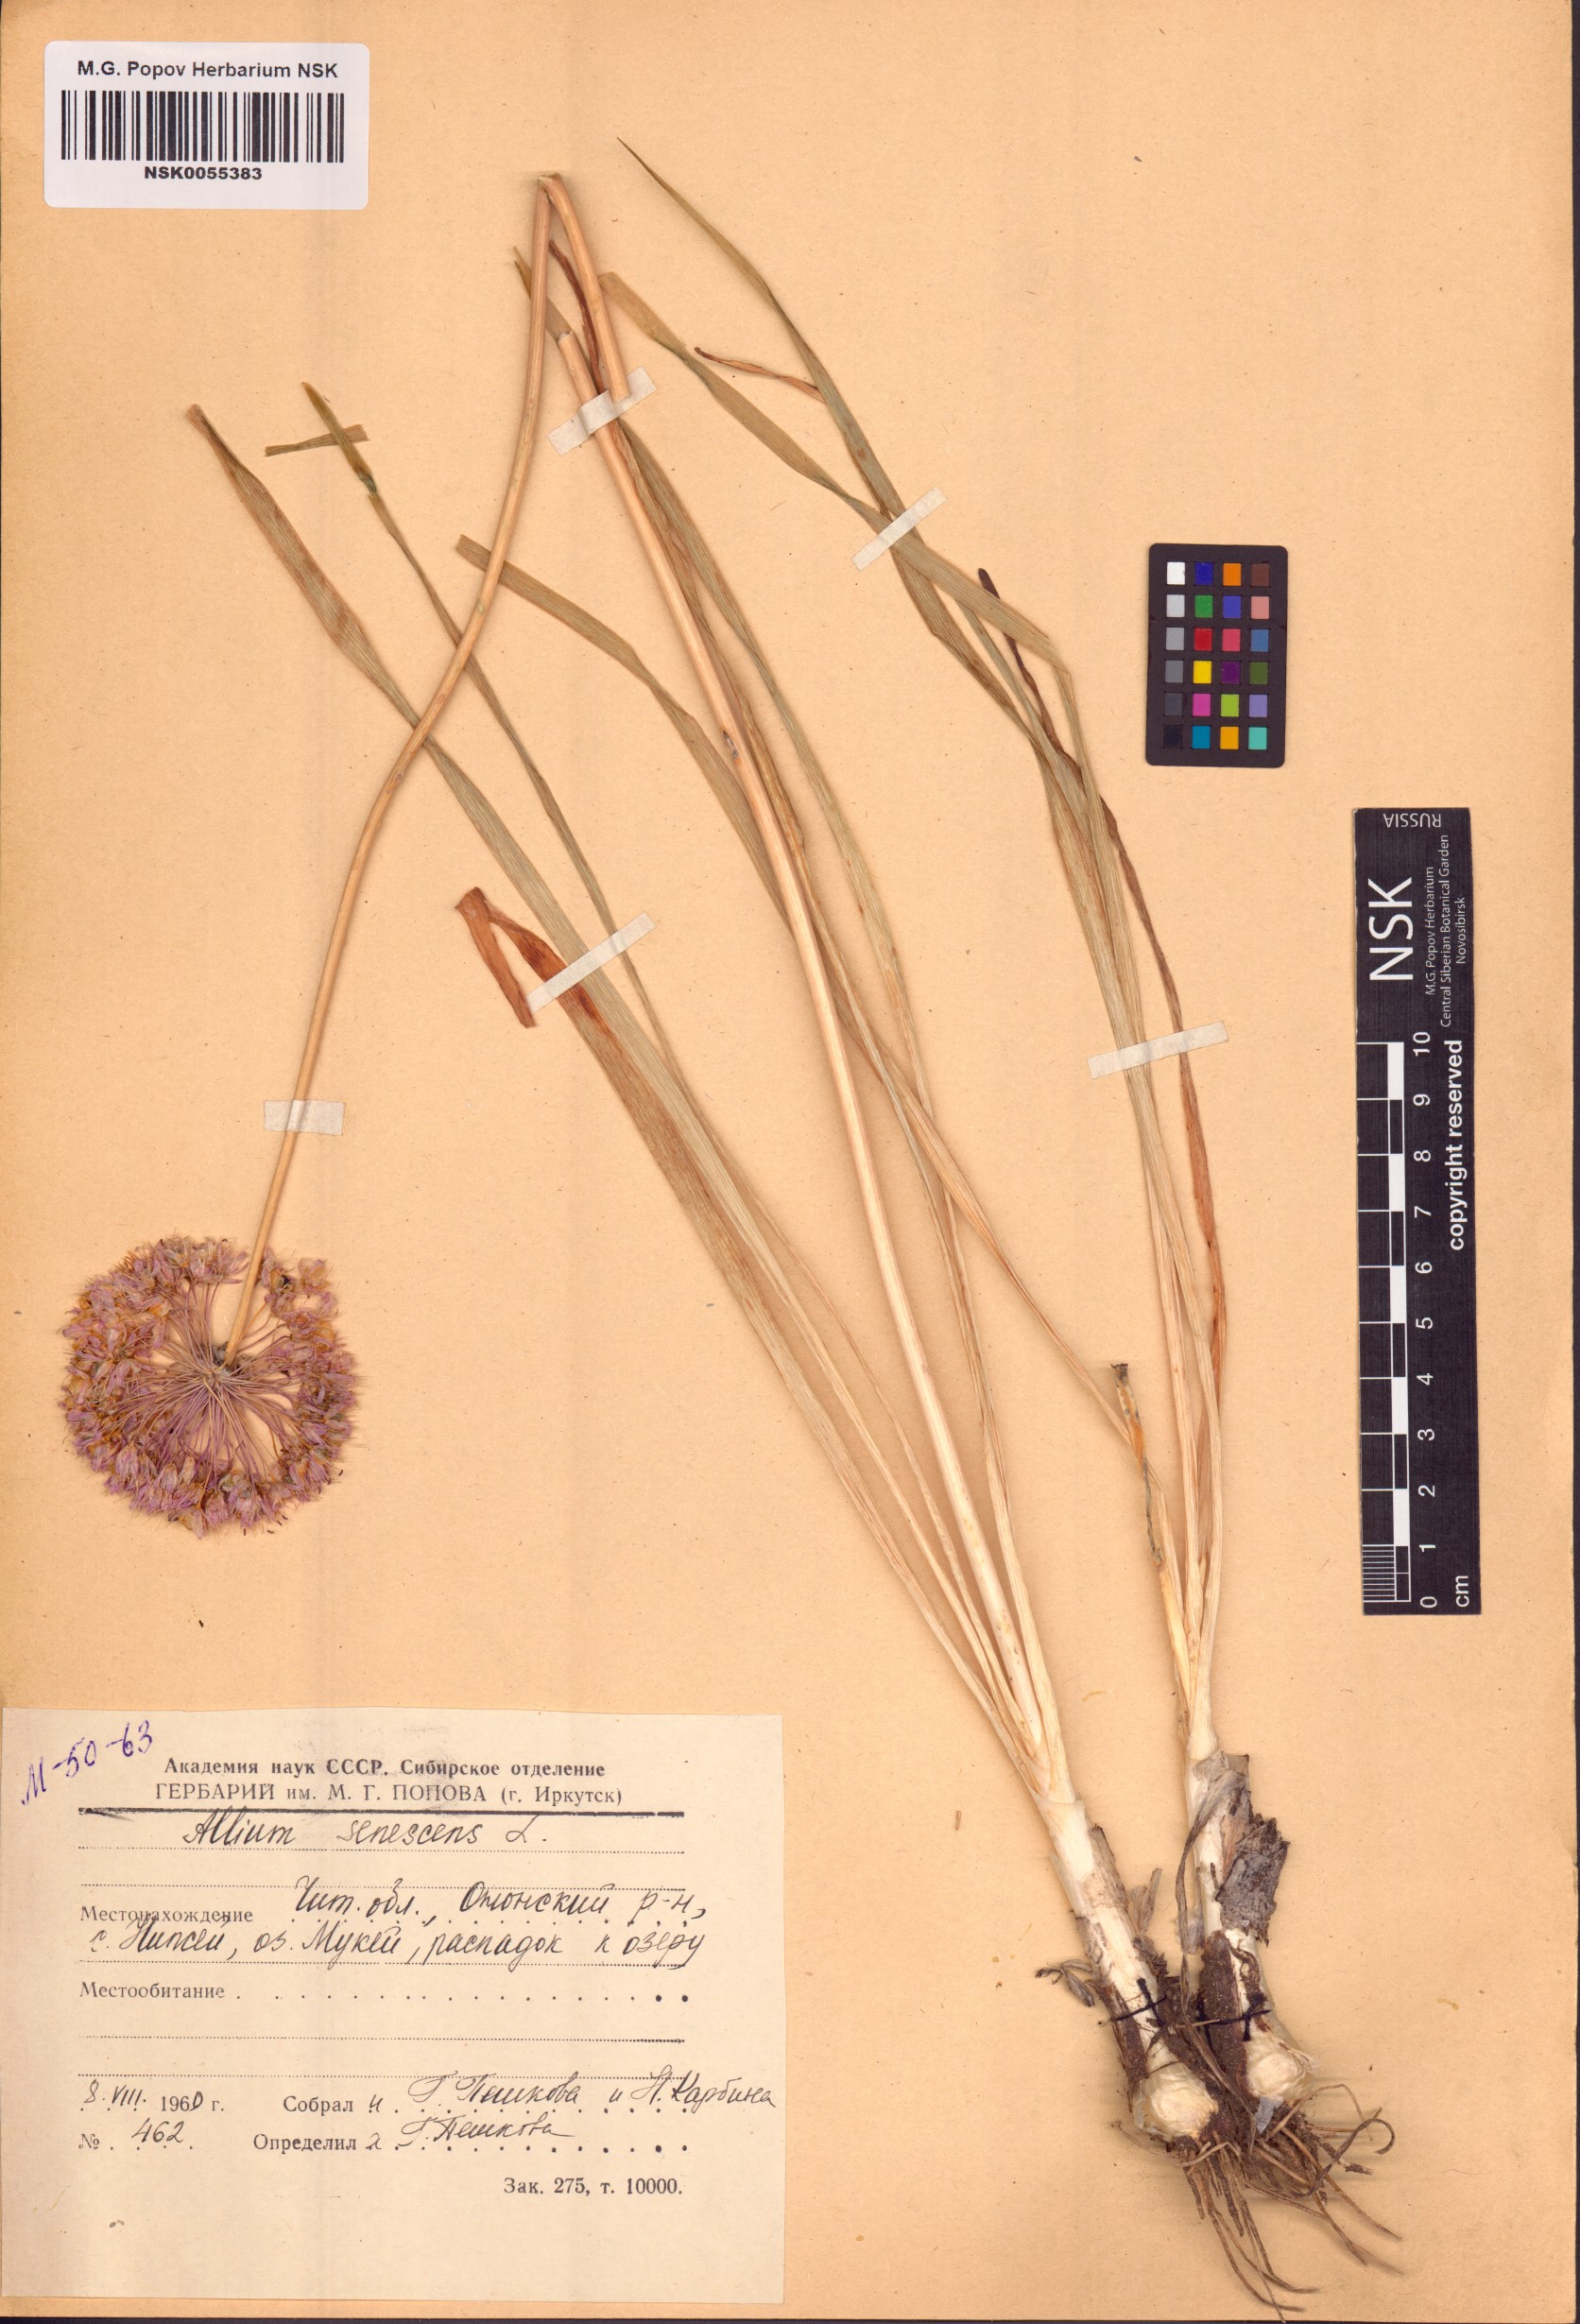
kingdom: Plantae
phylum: Tracheophyta
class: Liliopsida
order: Asparagales
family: Amaryllidaceae
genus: Allium
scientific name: Allium senescens
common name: German garlic
